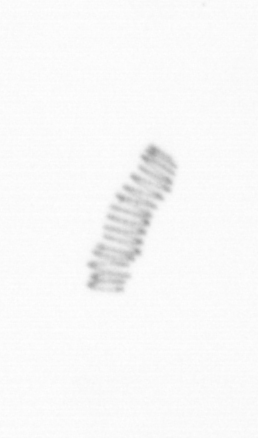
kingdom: Chromista
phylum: Ochrophyta
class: Bacillariophyceae
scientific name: Bacillariophyceae
